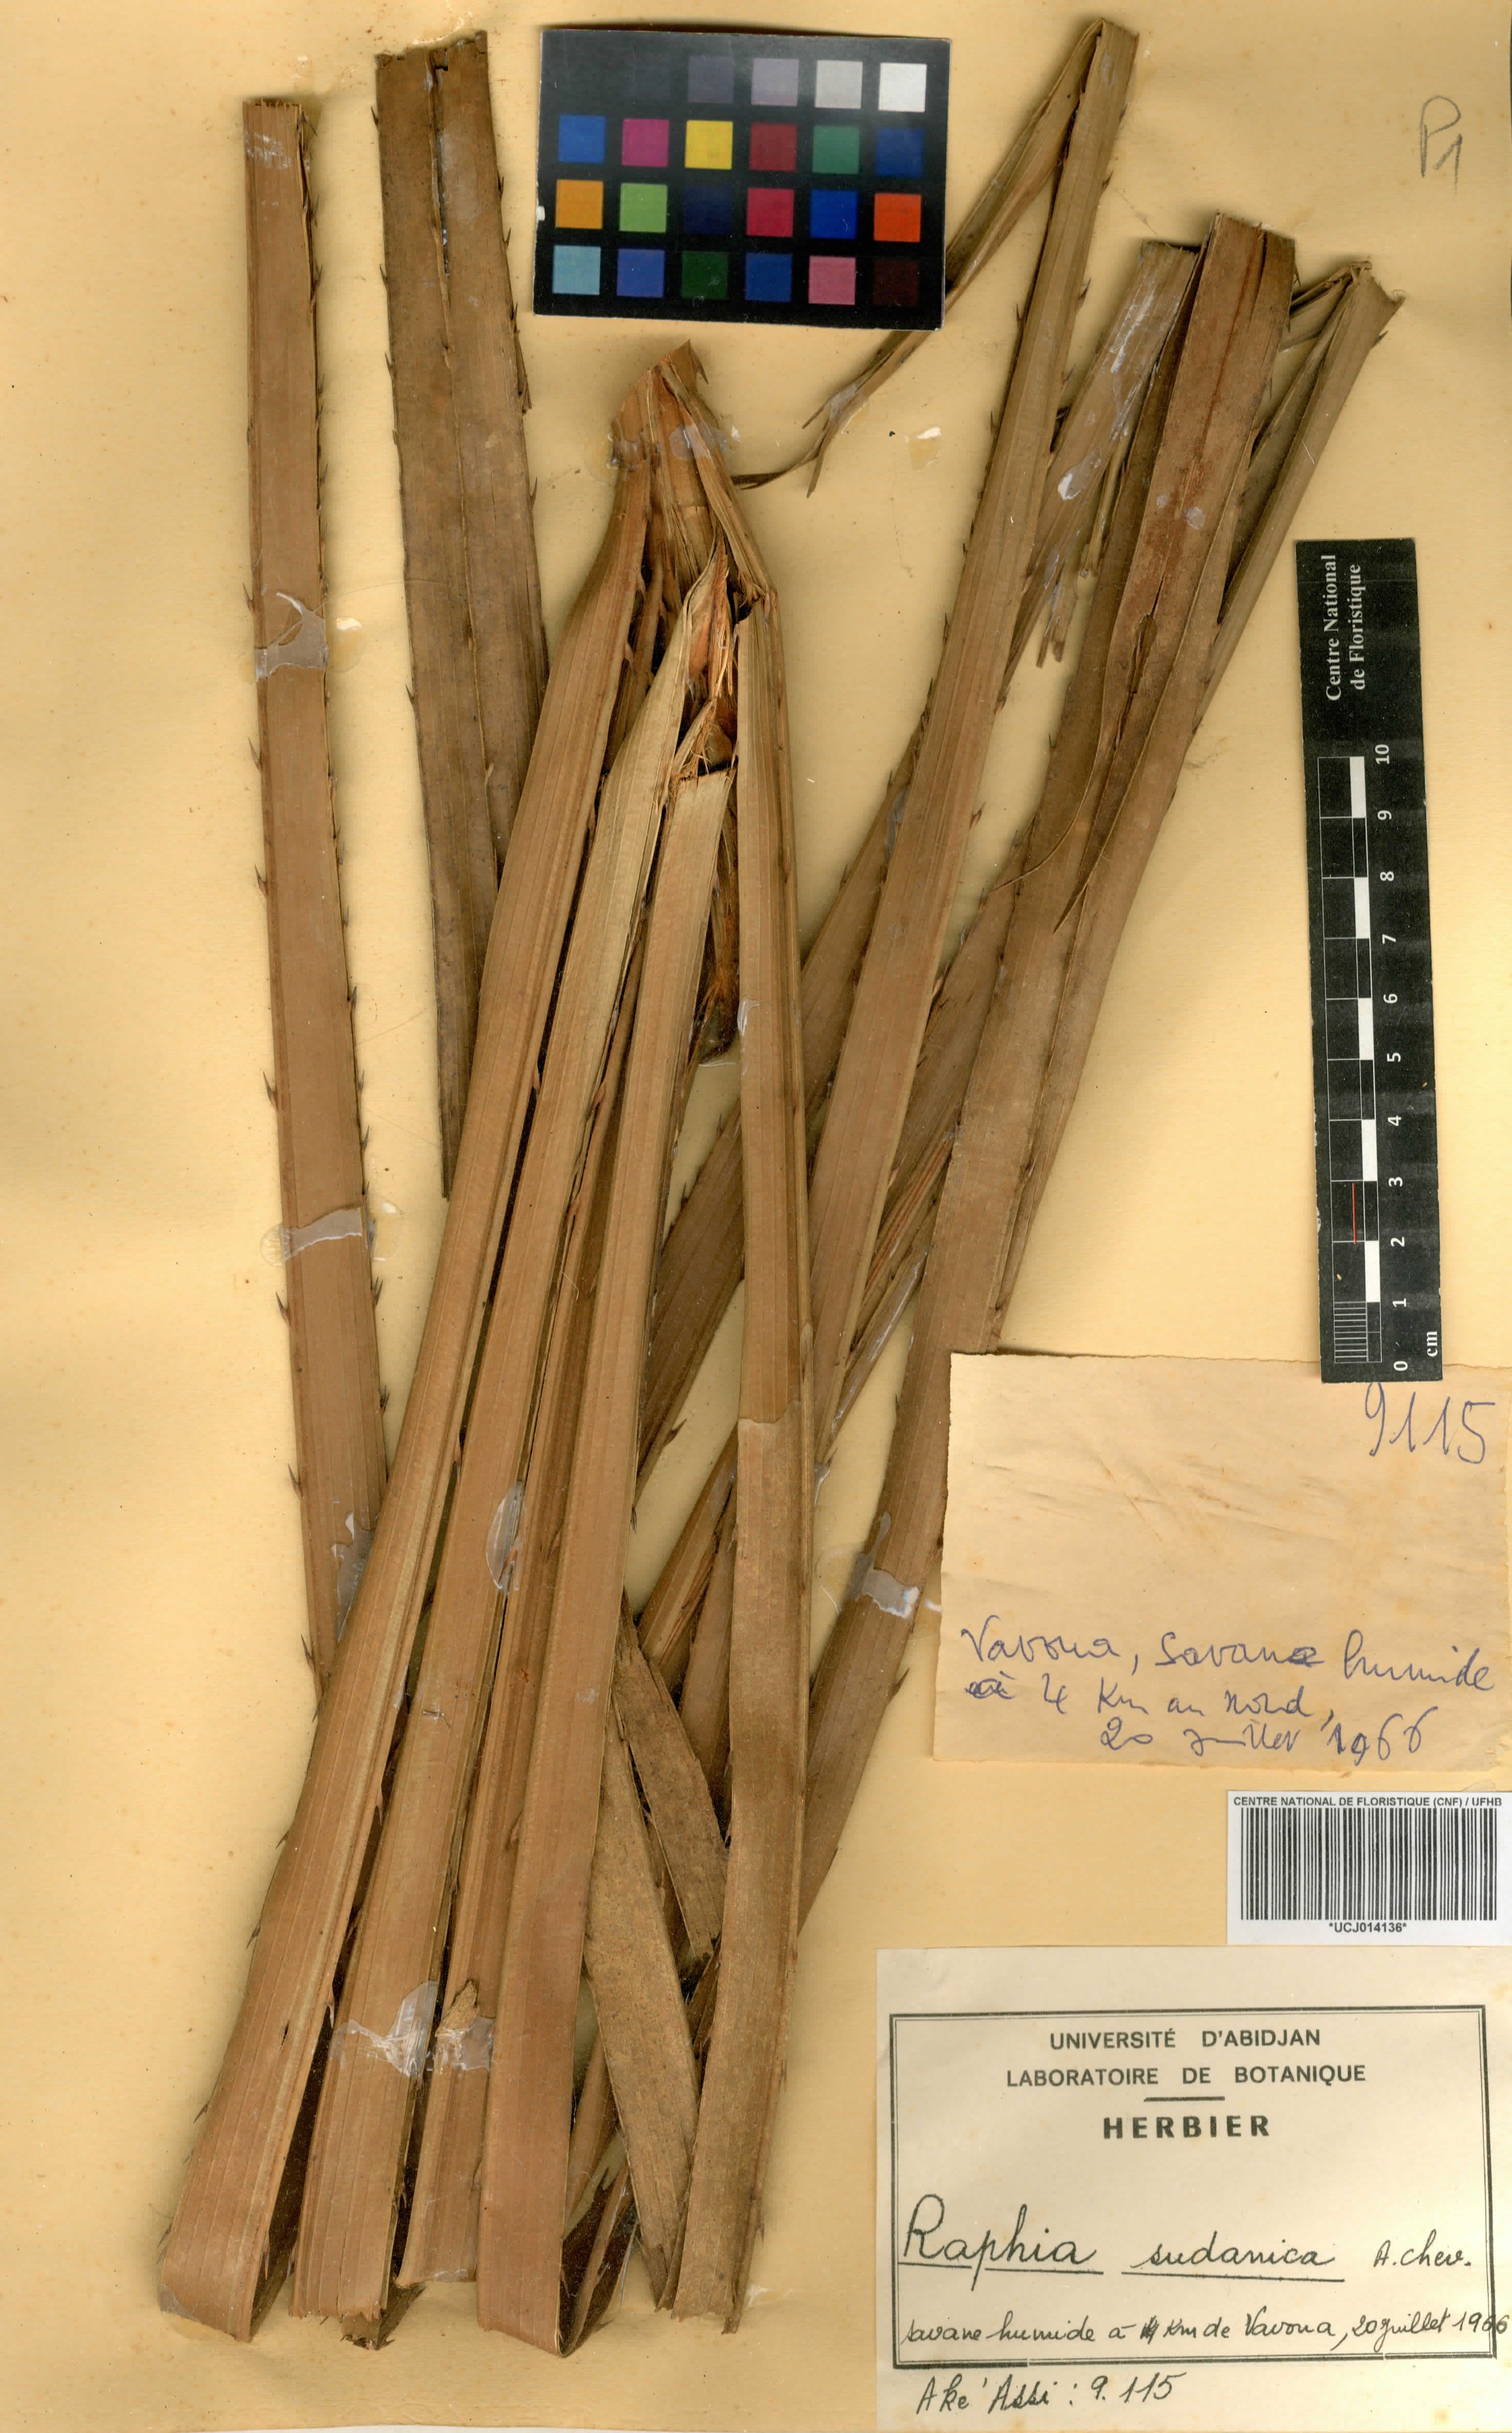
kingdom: Plantae
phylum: Tracheophyta
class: Liliopsida
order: Arecales
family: Arecaceae
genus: Raphia
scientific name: Raphia sudanica
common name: Northern raphia
